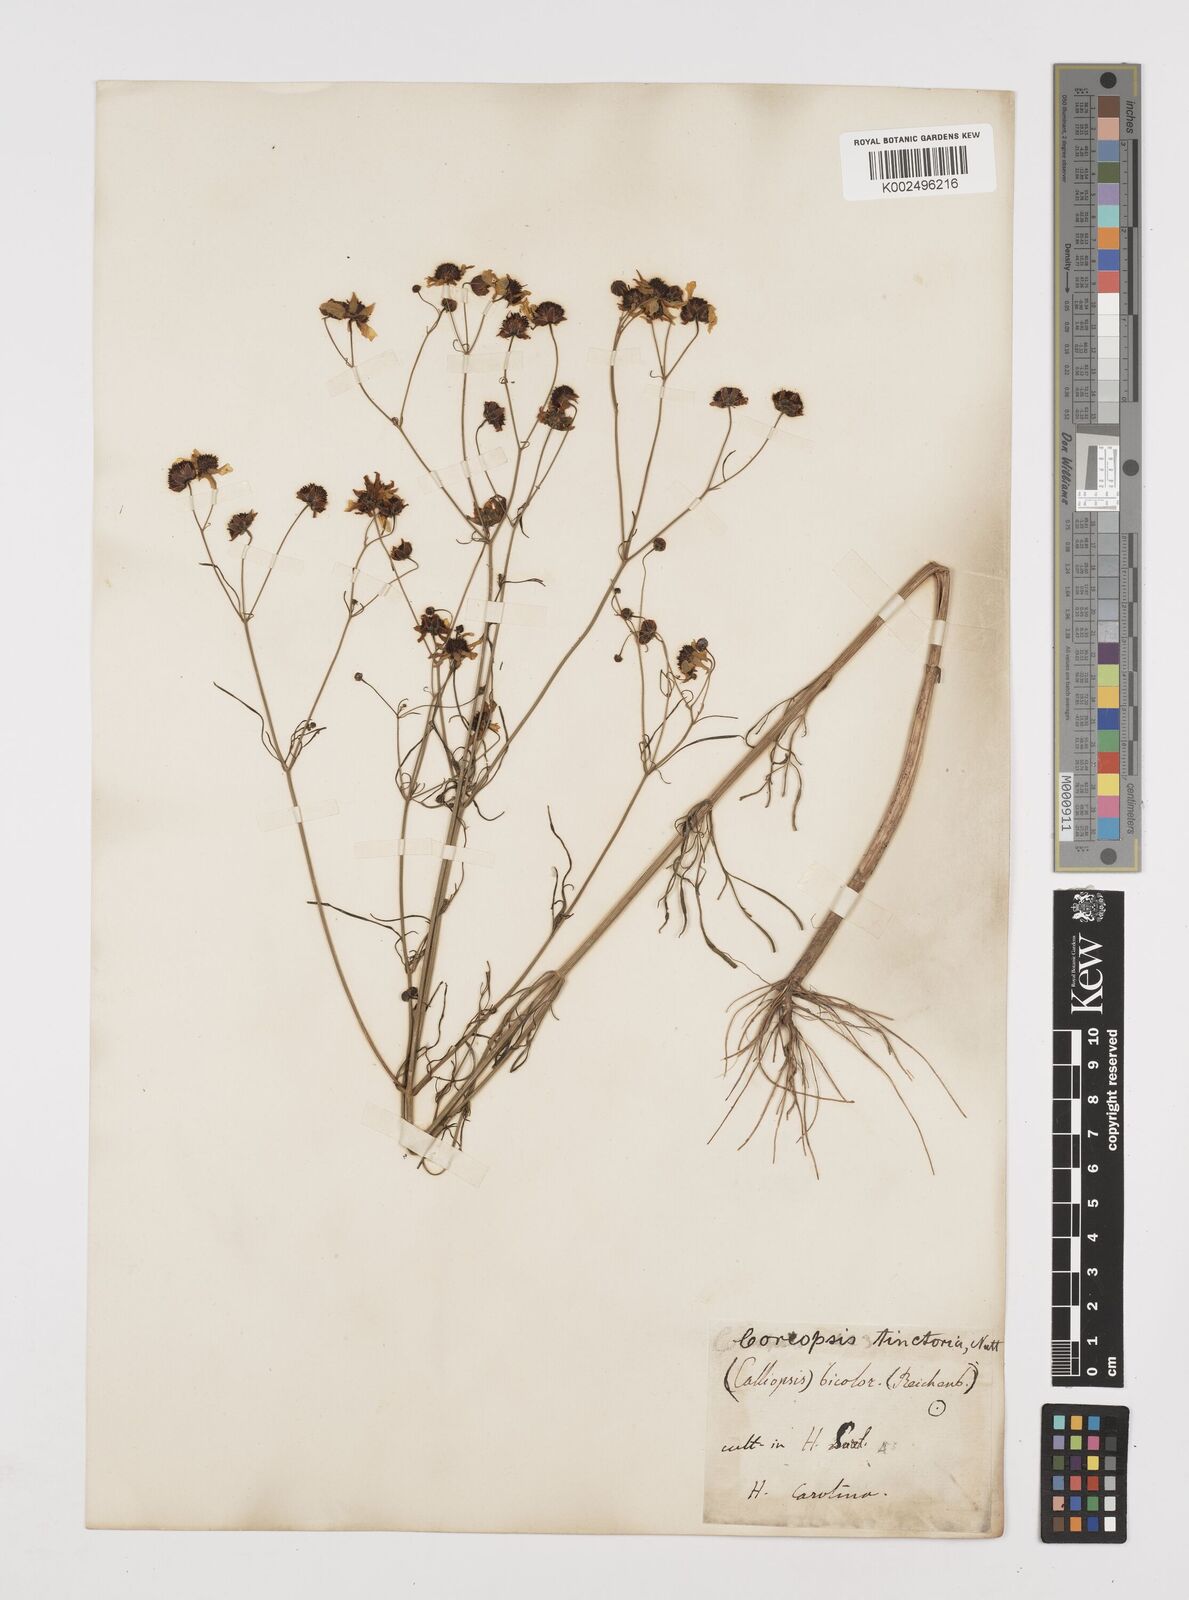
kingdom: Plantae
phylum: Tracheophyta
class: Magnoliopsida
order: Asterales
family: Asteraceae
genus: Coreopsis
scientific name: Coreopsis tinctoria
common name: Garden tickseed
